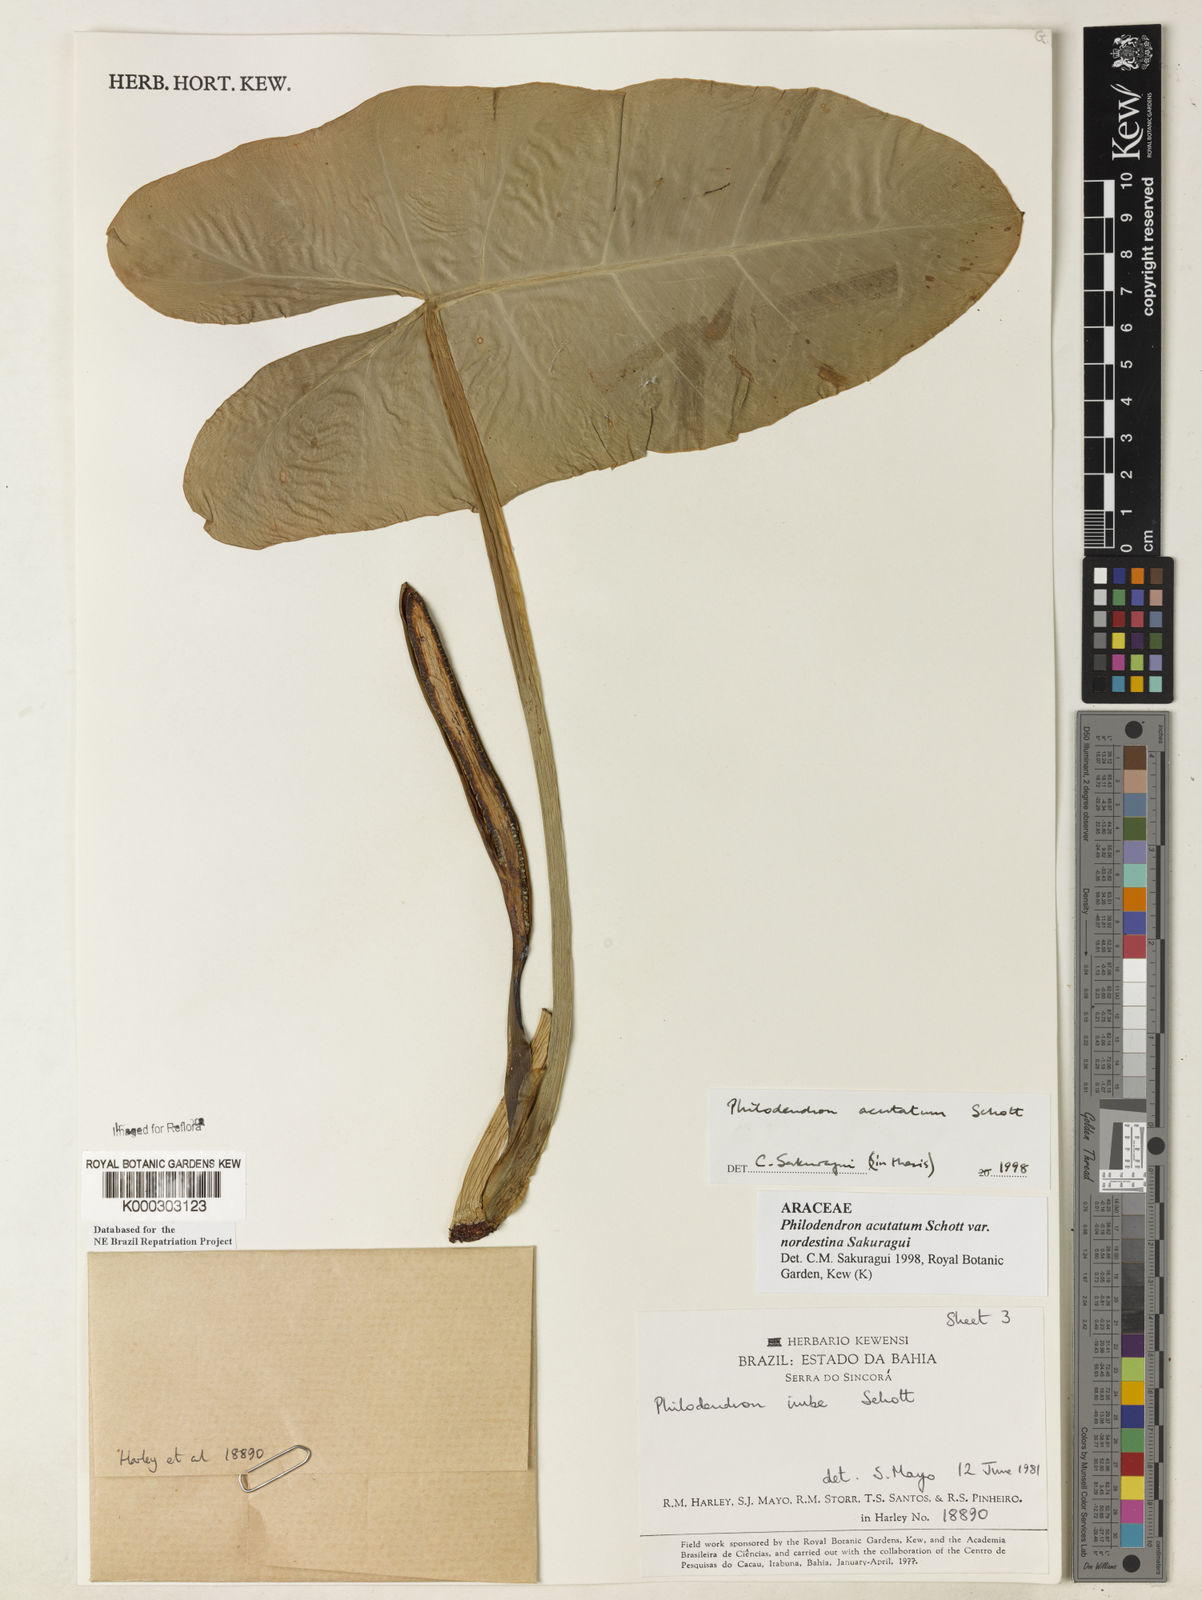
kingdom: Plantae
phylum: Tracheophyta
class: Liliopsida
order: Alismatales
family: Araceae
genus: Philodendron
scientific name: Philodendron quinquenervium
